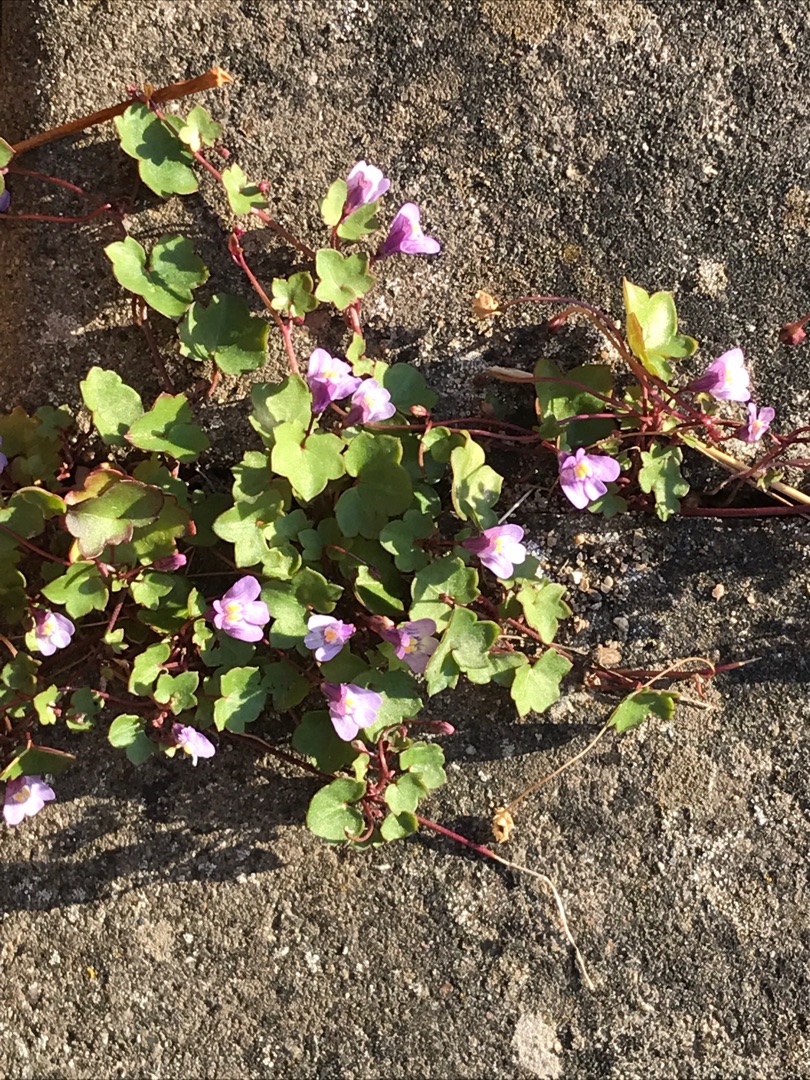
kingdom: Plantae
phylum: Tracheophyta
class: Magnoliopsida
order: Lamiales
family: Plantaginaceae
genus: Cymbalaria
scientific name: Cymbalaria muralis
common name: Vedbend-torskemund
